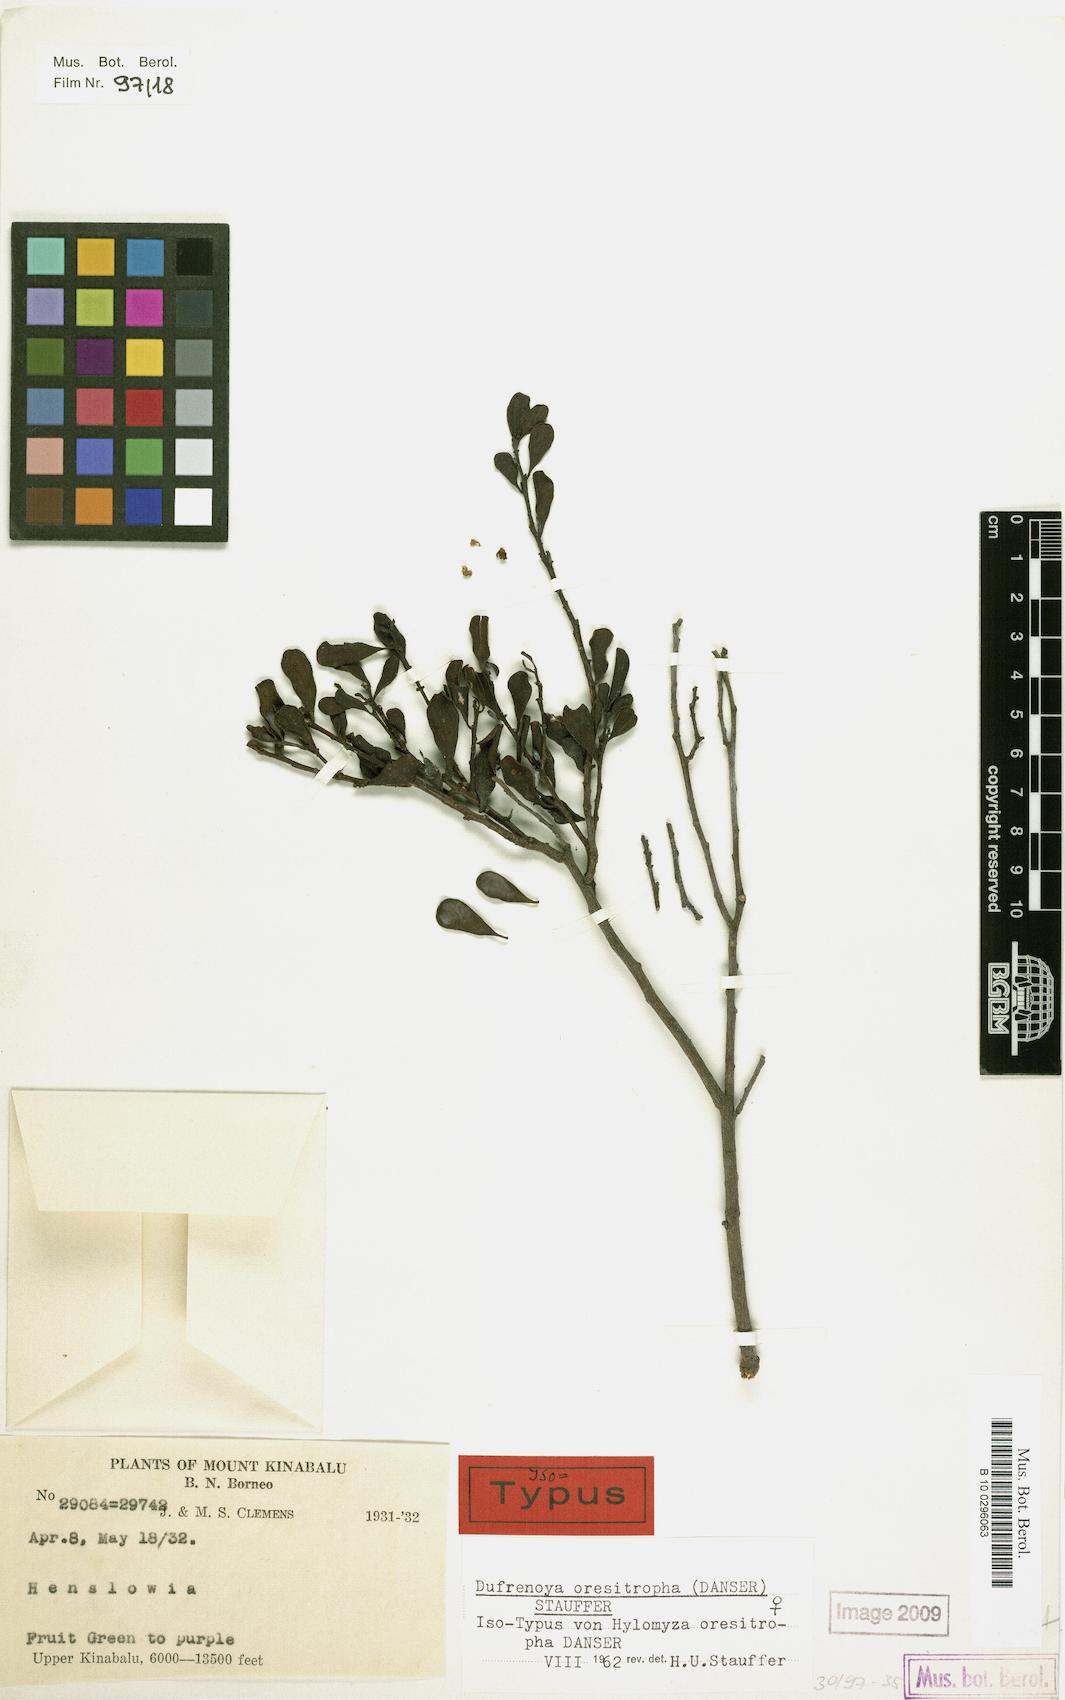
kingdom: Plantae
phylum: Tracheophyta
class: Magnoliopsida
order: Santalales
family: Amphorogynaceae
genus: Dufrenoya
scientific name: Dufrenoya oresitropha
